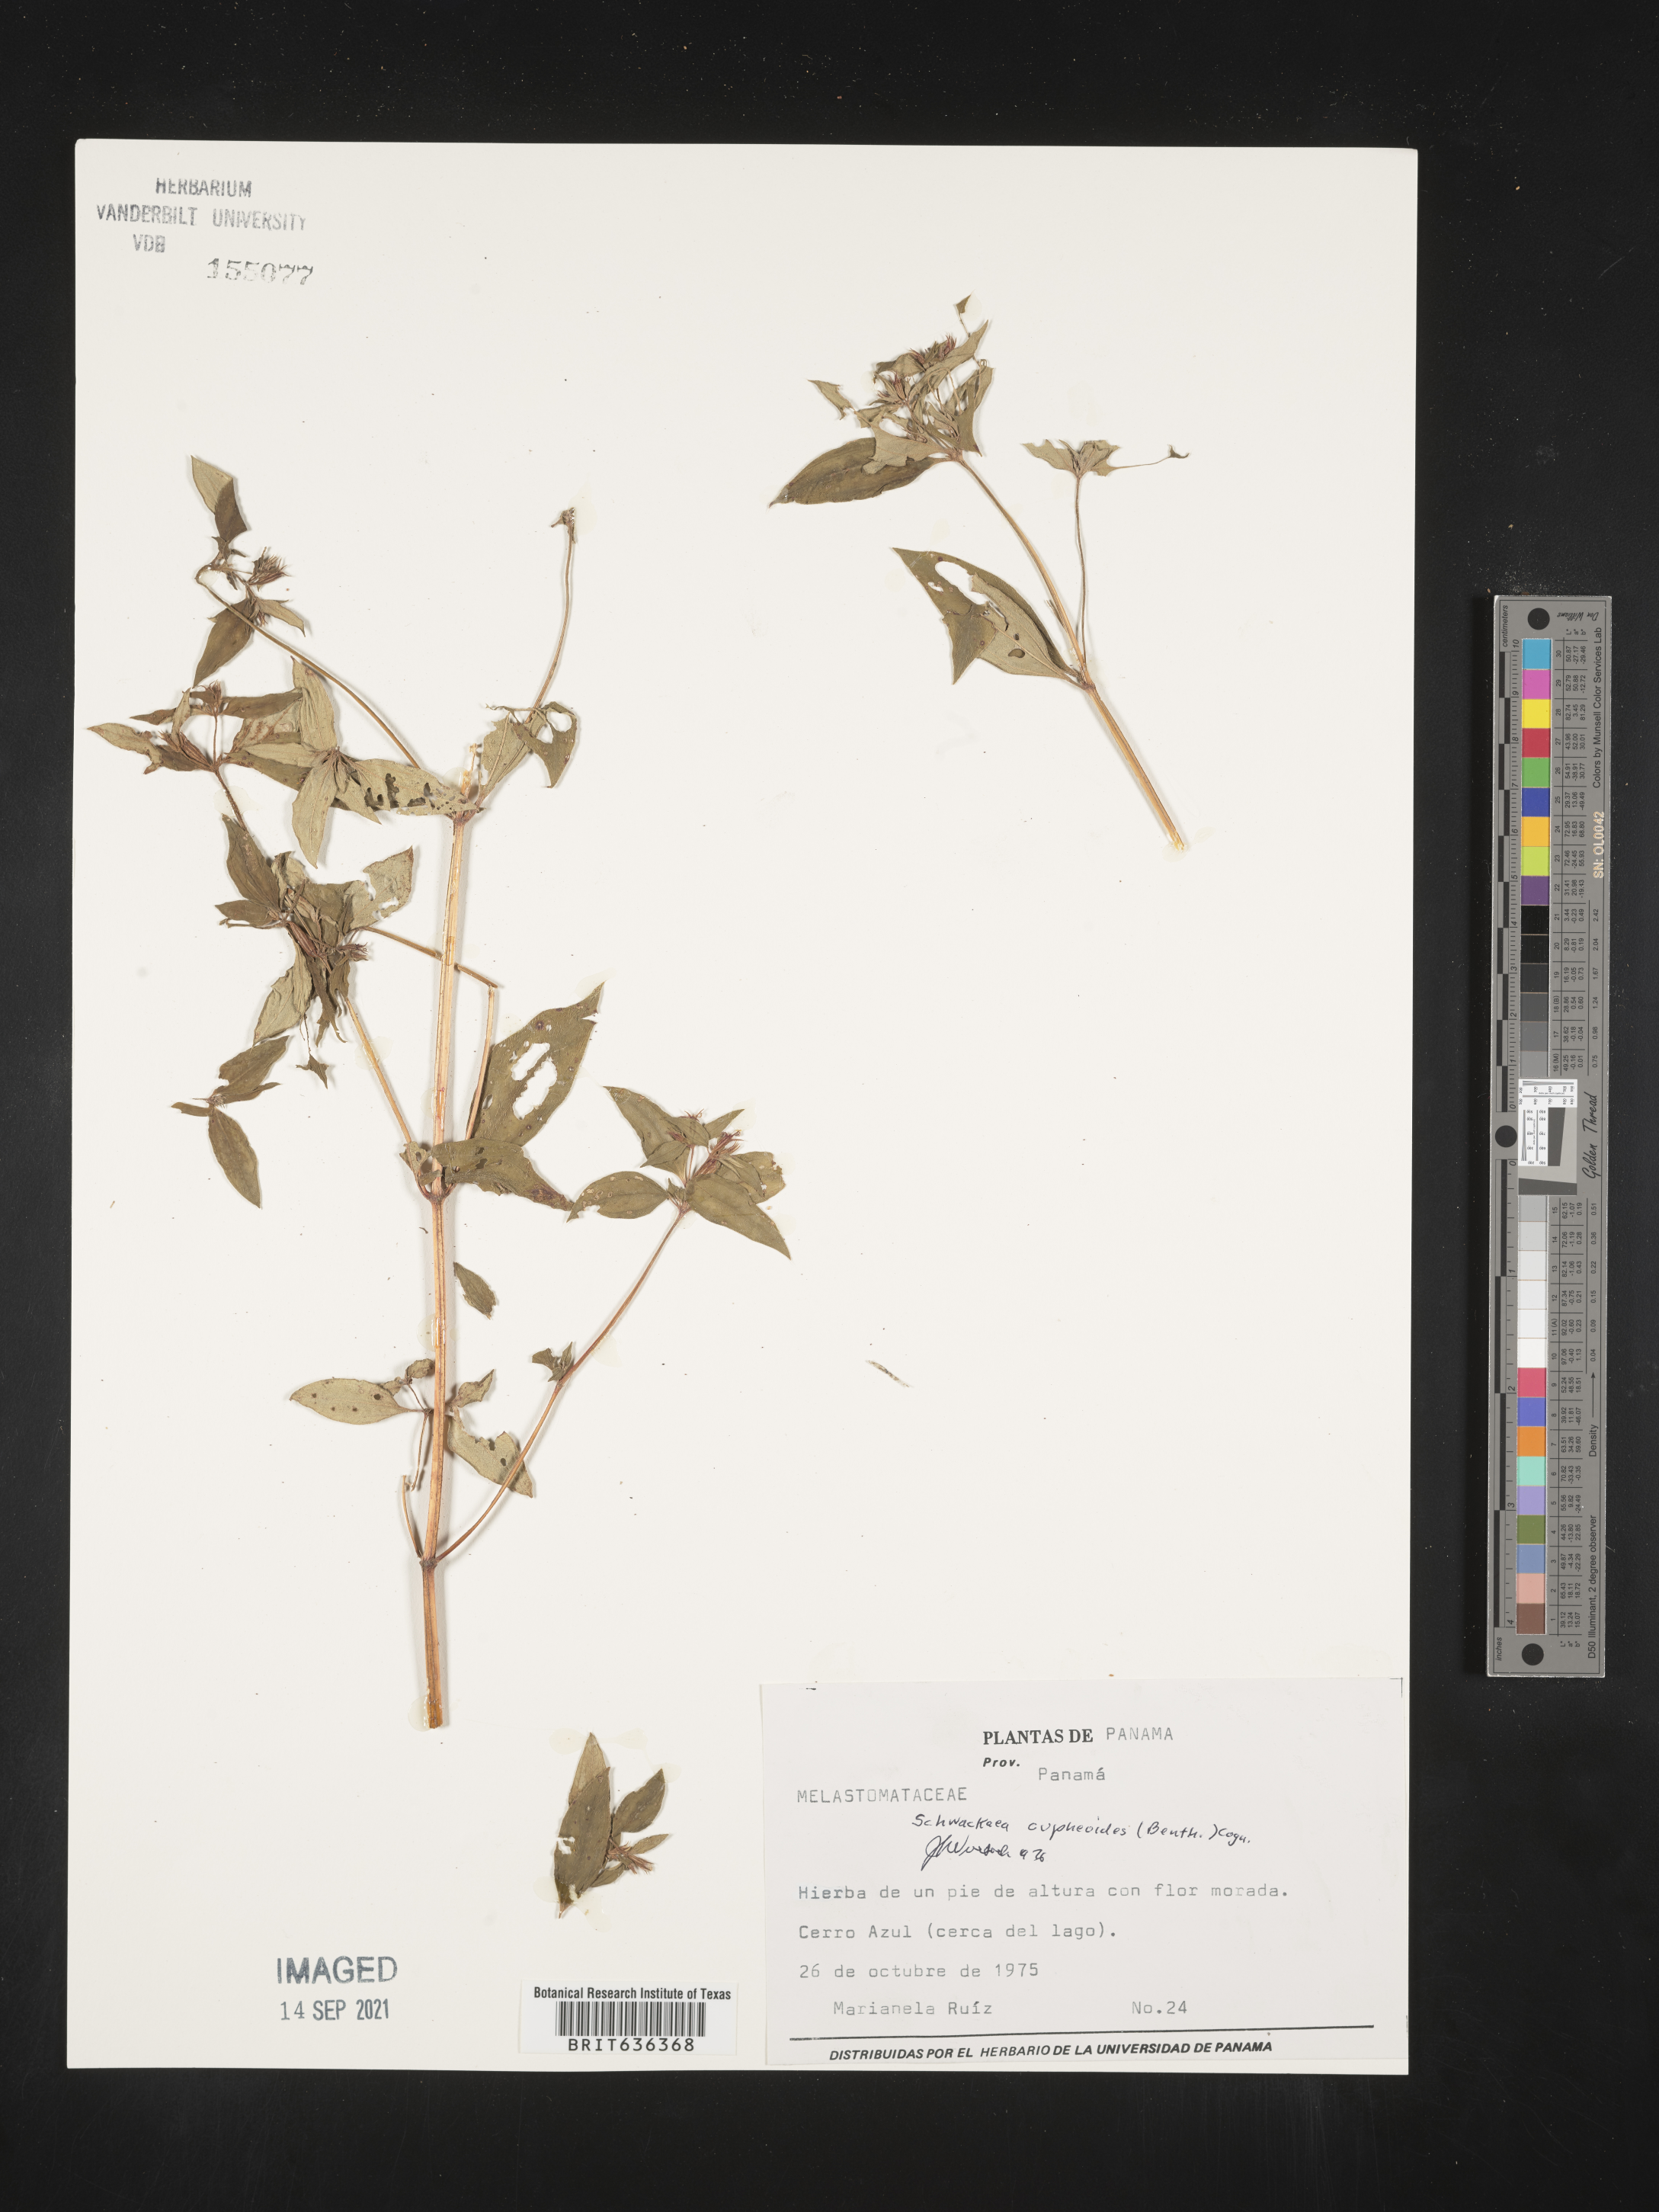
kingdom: Plantae
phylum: Tracheophyta
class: Magnoliopsida
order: Myrtales
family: Melastomataceae
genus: Schwackaea
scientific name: Schwackaea
